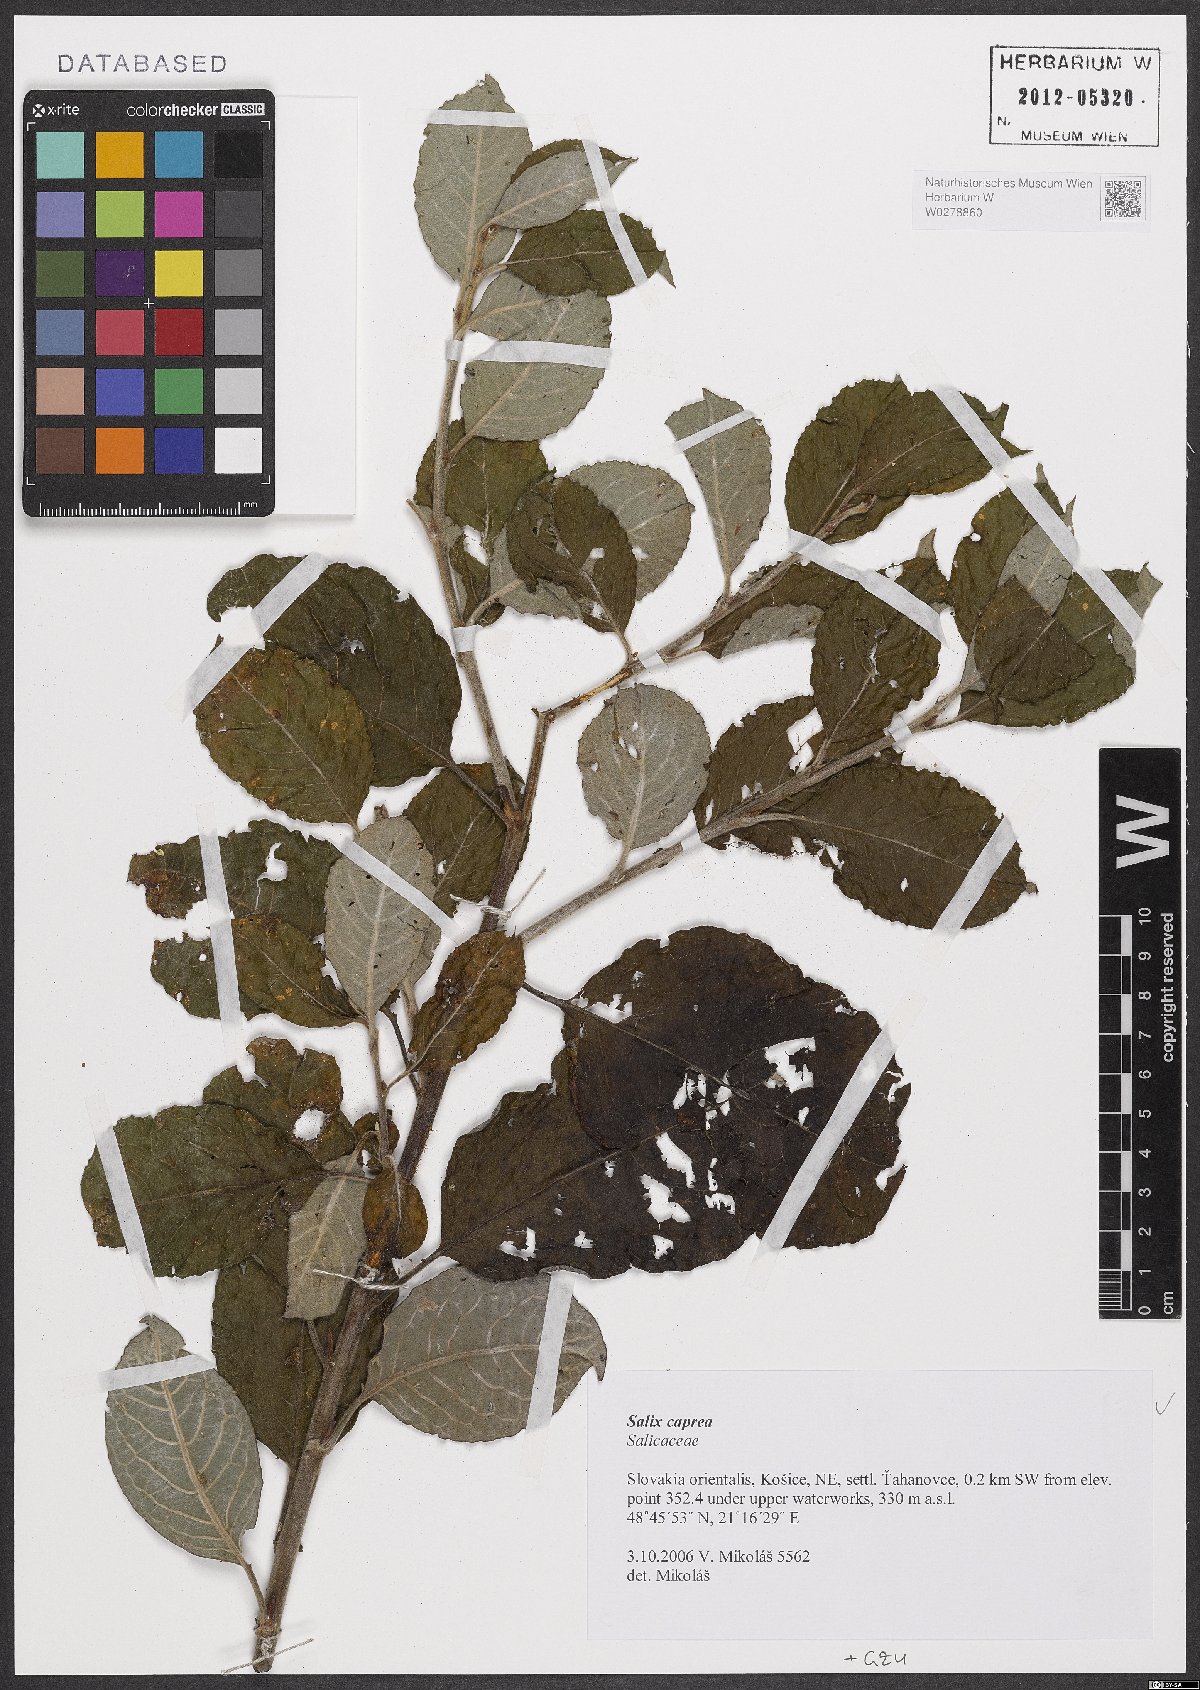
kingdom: Plantae
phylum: Tracheophyta
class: Magnoliopsida
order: Malpighiales
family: Salicaceae
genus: Salix
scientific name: Salix caprea
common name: Goat willow
